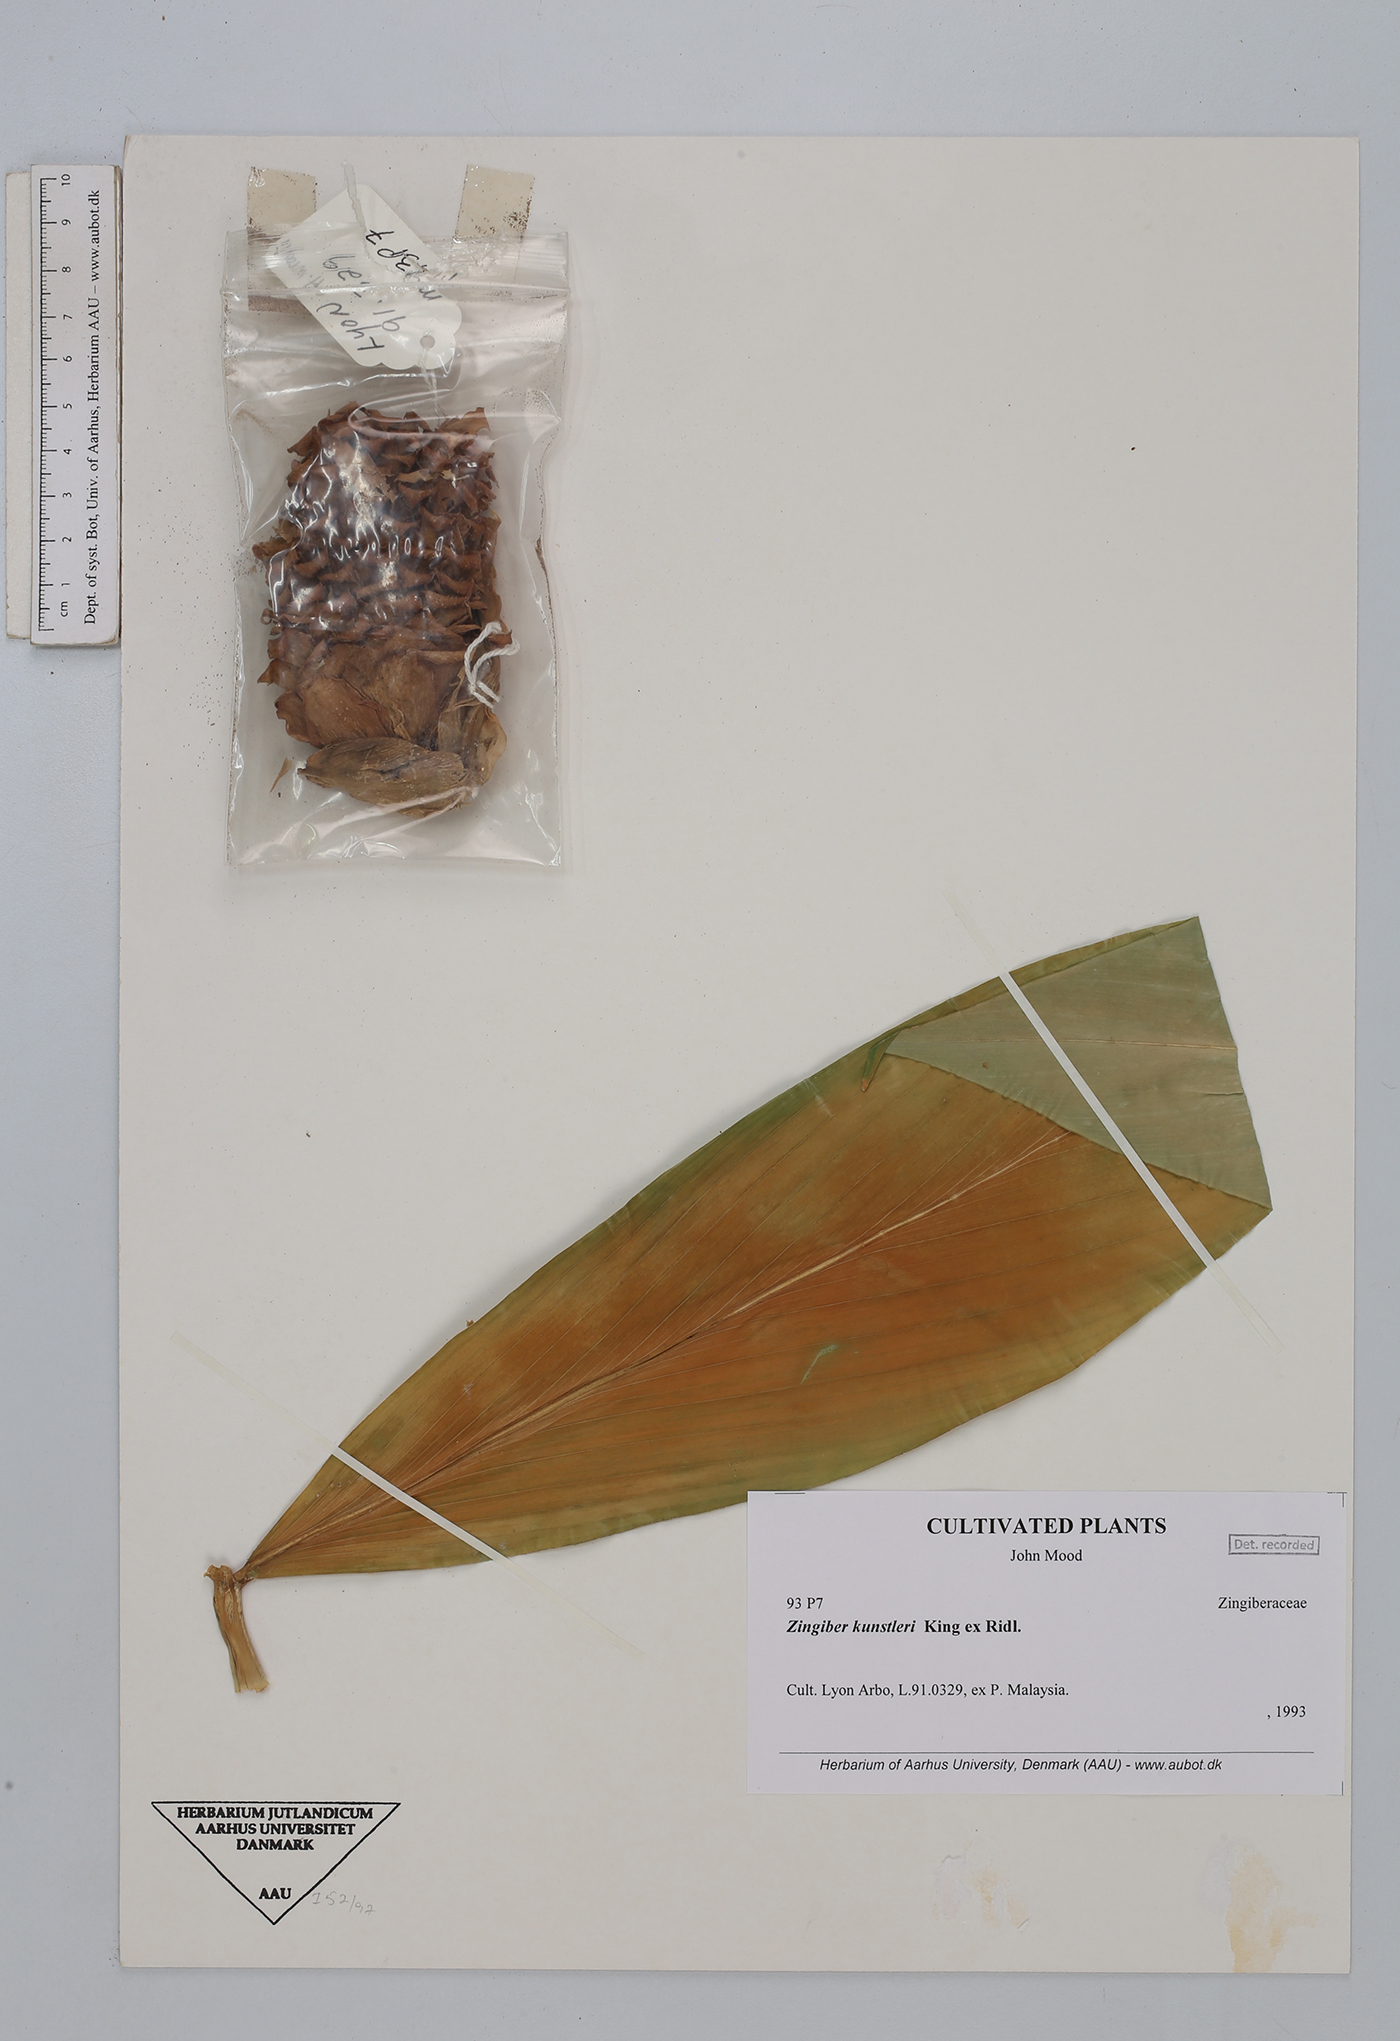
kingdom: Plantae
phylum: Tracheophyta
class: Liliopsida
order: Zingiberales
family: Zingiberaceae
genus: Zingiber
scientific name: Zingiber kunstleri
